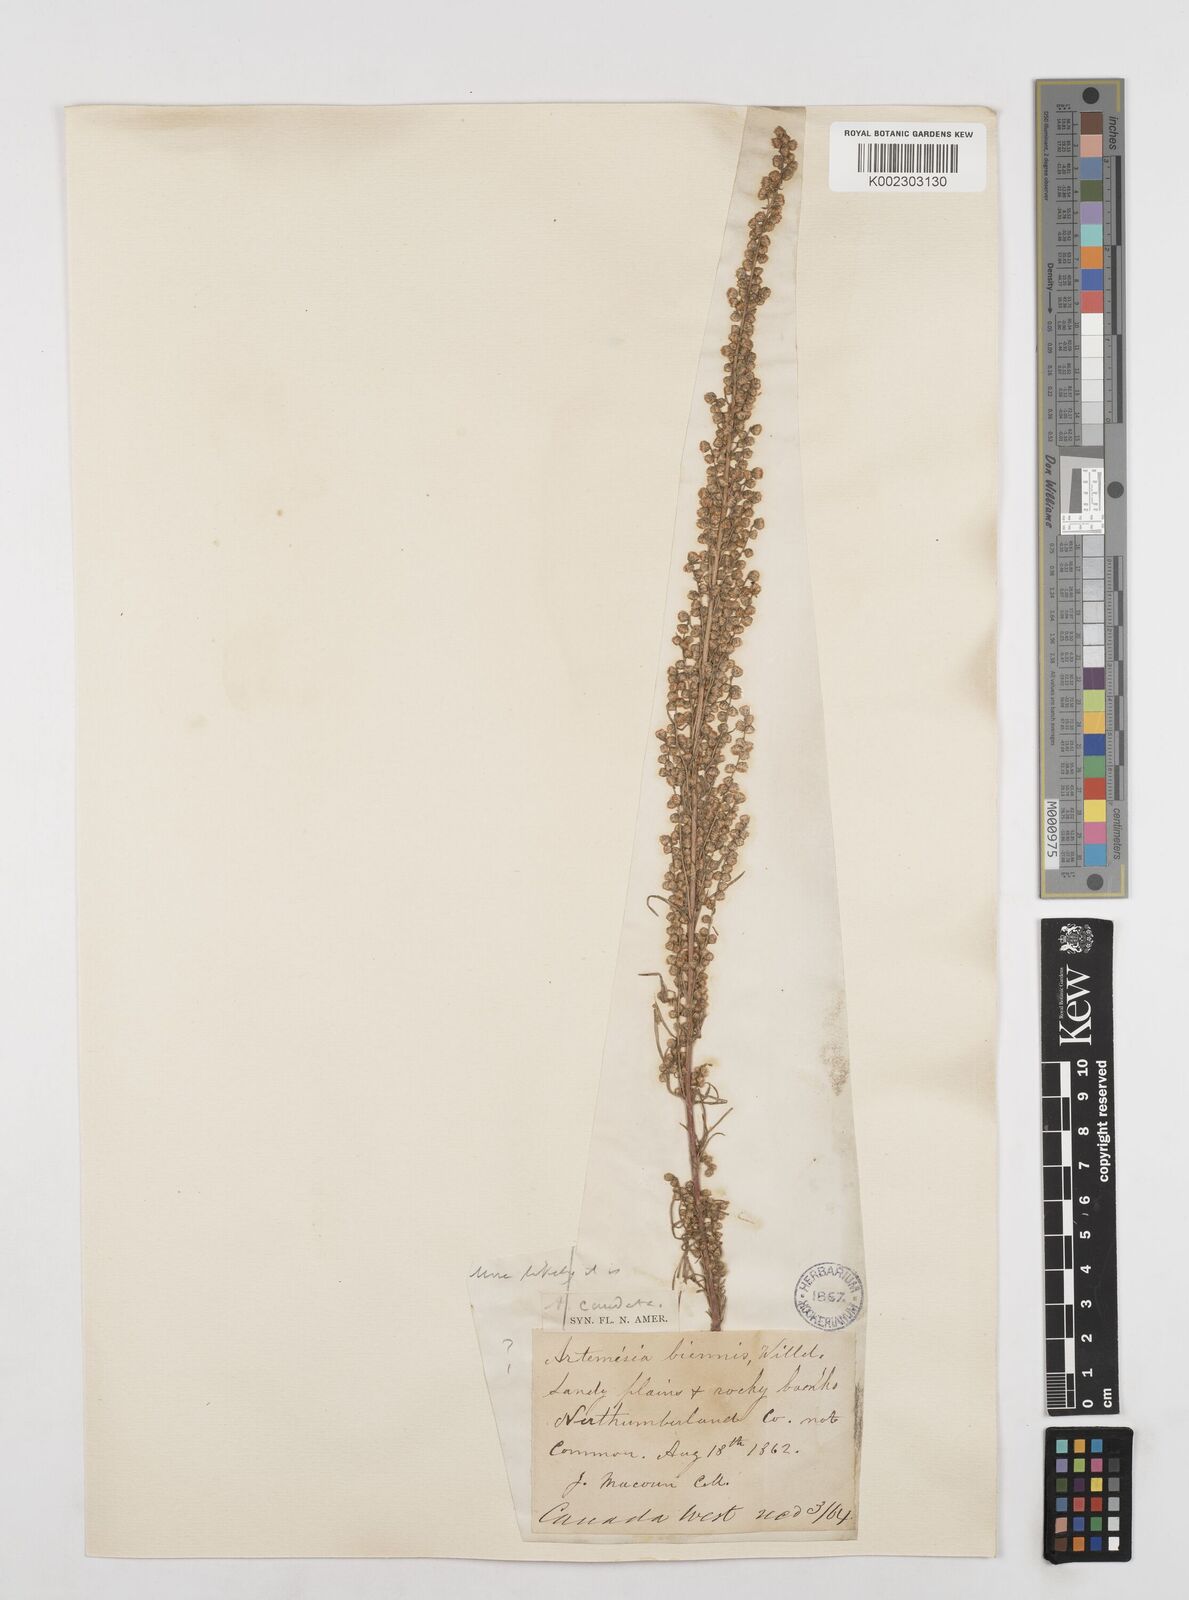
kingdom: Plantae
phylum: Tracheophyta
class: Magnoliopsida
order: Asterales
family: Asteraceae
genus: Artemisia
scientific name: Artemisia campestris
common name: Field wormwood
